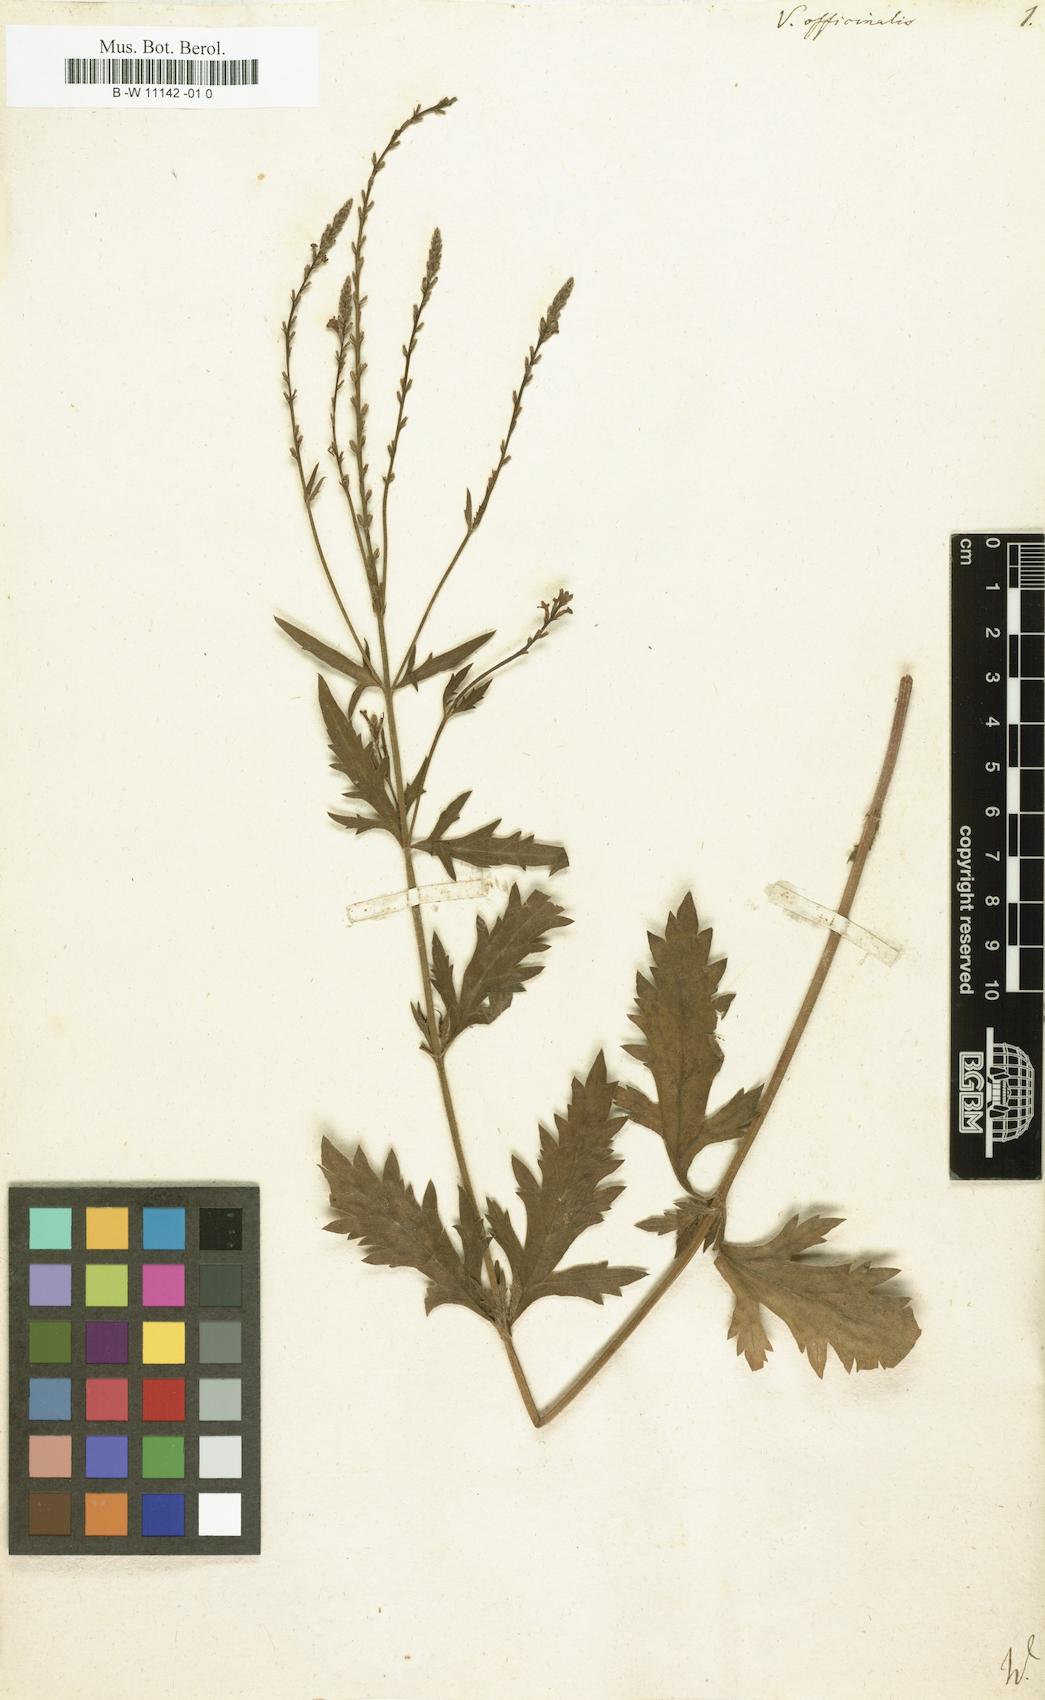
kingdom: Plantae
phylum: Tracheophyta
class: Magnoliopsida
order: Lamiales
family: Verbenaceae
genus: Verbena
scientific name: Verbena officinalis
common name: Vervain
